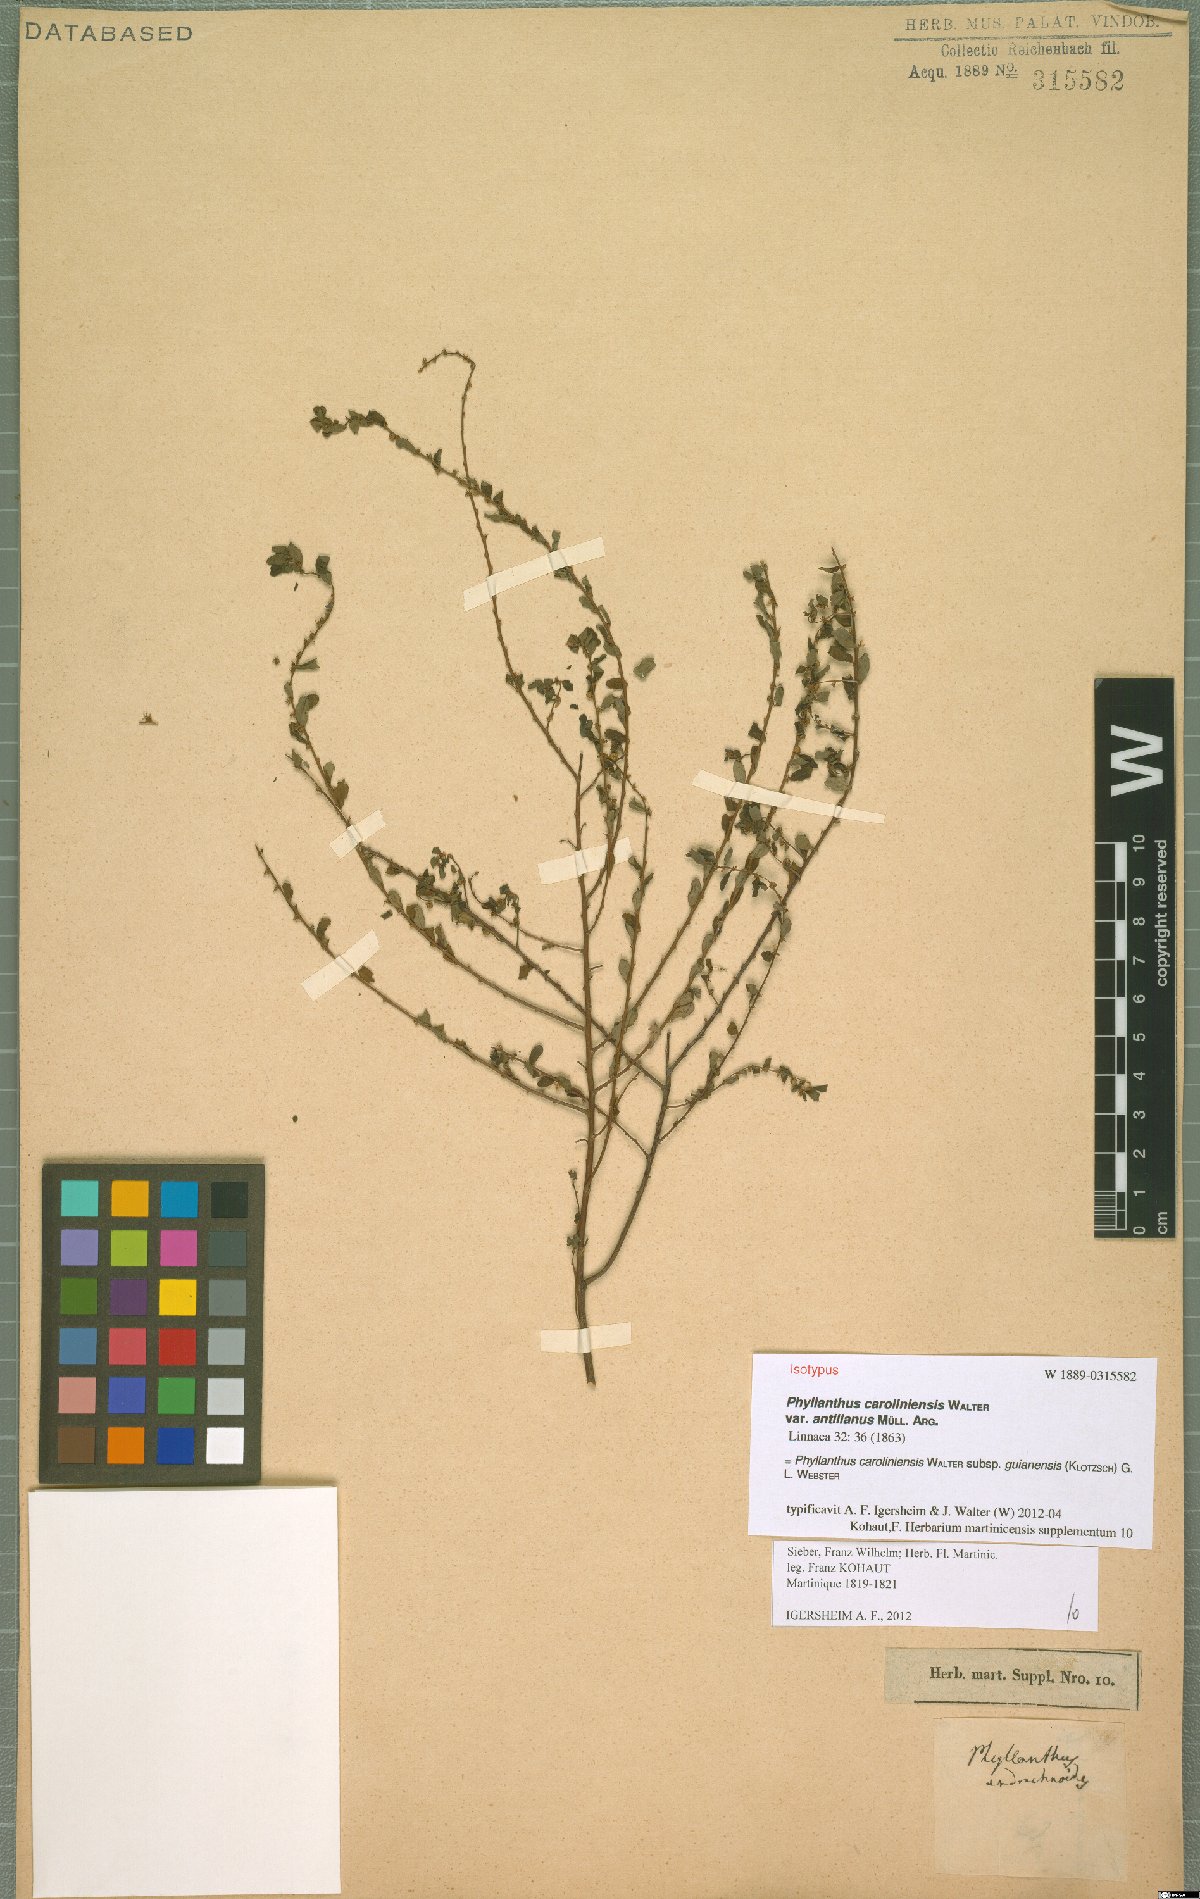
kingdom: Plantae
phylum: Tracheophyta
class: Magnoliopsida
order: Malpighiales
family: Phyllanthaceae
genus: Phyllanthus
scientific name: Phyllanthus caroliniensis
